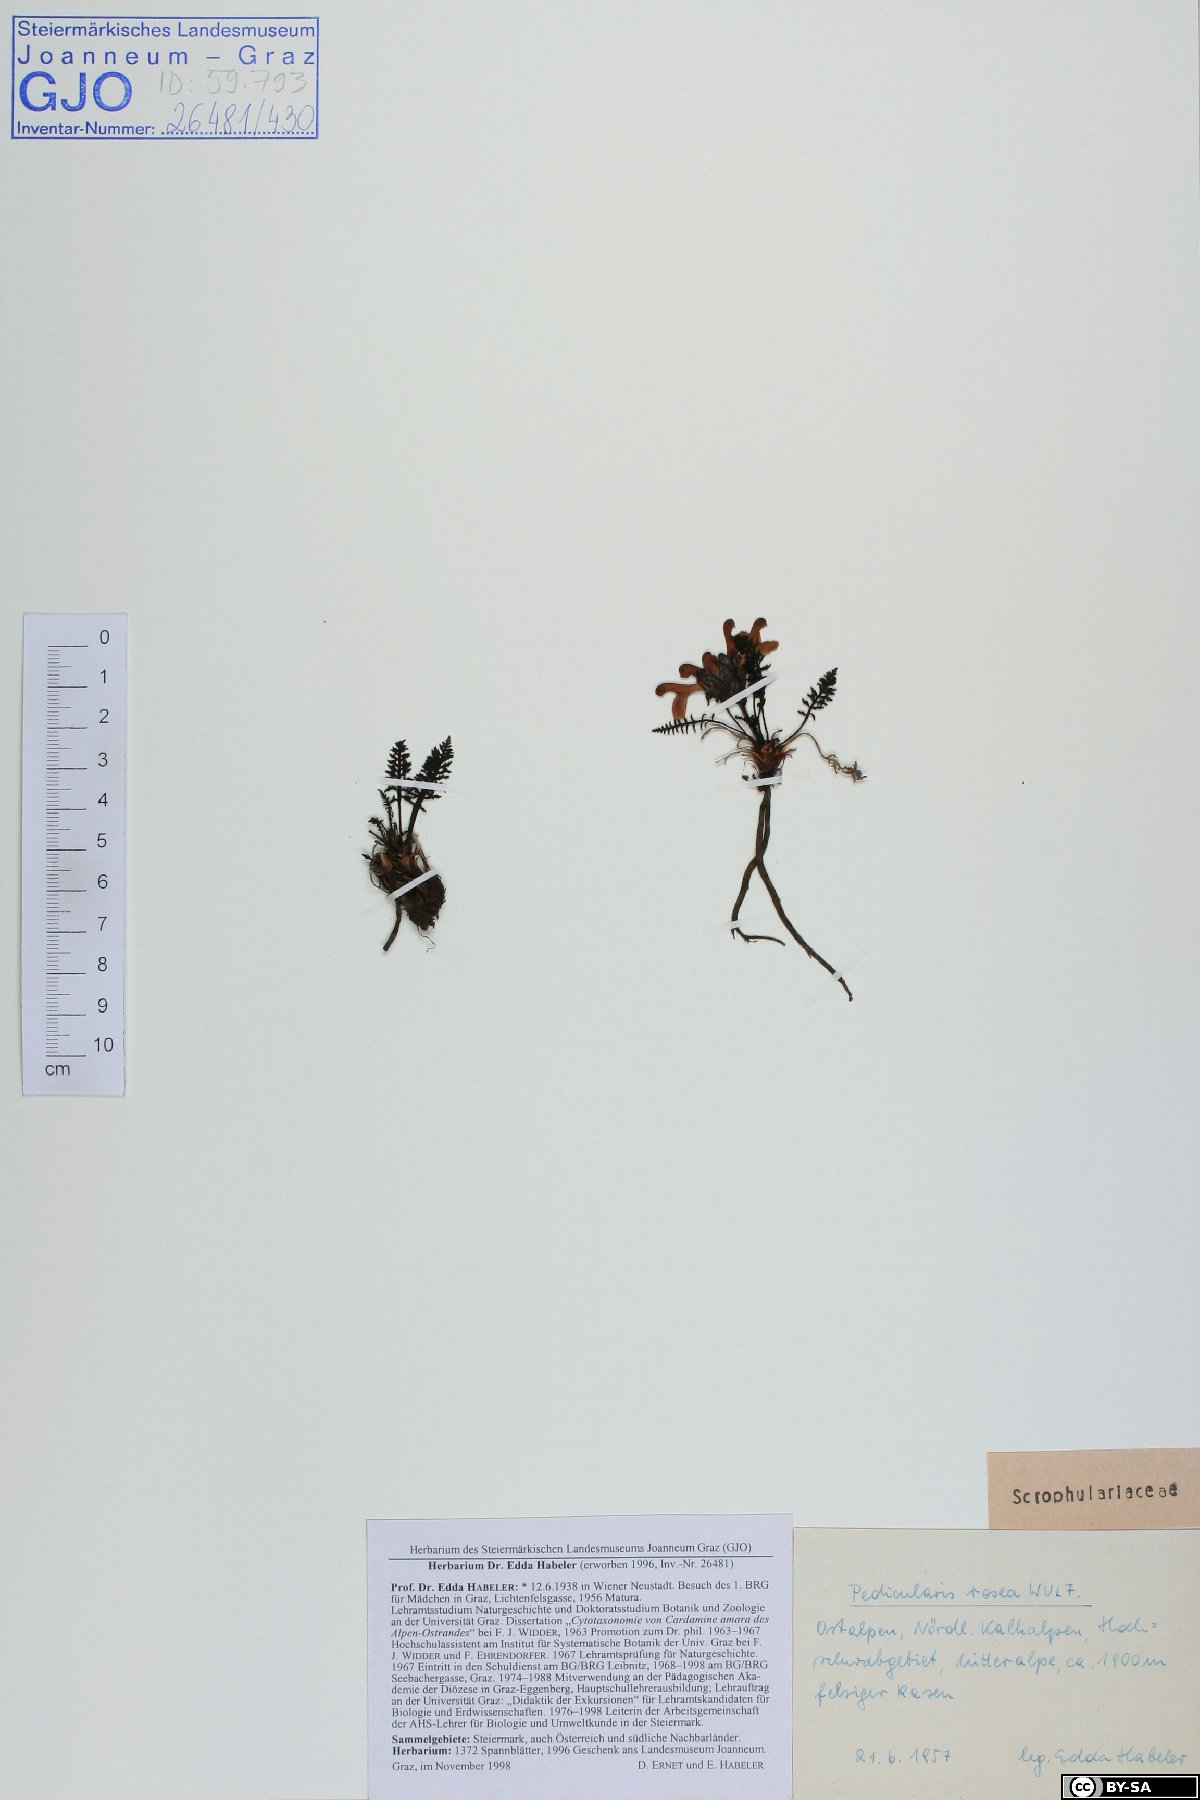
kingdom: Plantae
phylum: Tracheophyta
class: Magnoliopsida
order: Lamiales
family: Orobanchaceae
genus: Pedicularis
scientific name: Pedicularis rosea
